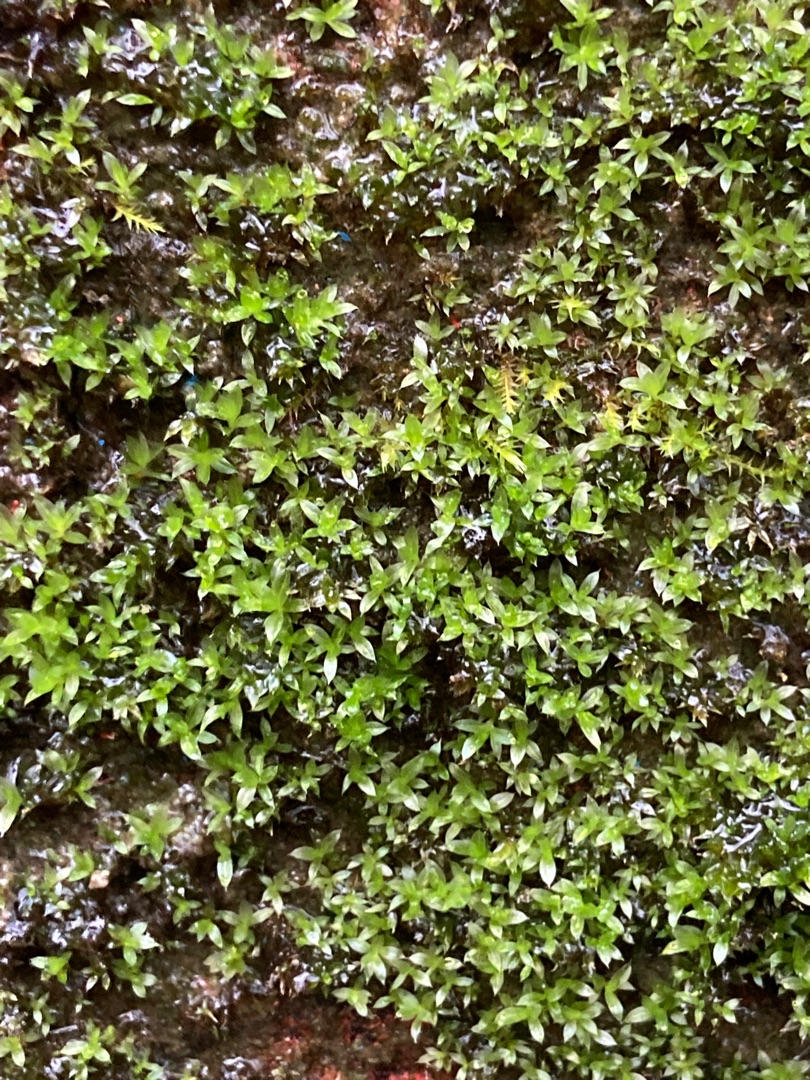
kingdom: Plantae
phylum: Bryophyta
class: Bryopsida
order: Bryales
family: Bryaceae
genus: Rosulabryum
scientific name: Rosulabryum moravicum
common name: Bark-bryum
